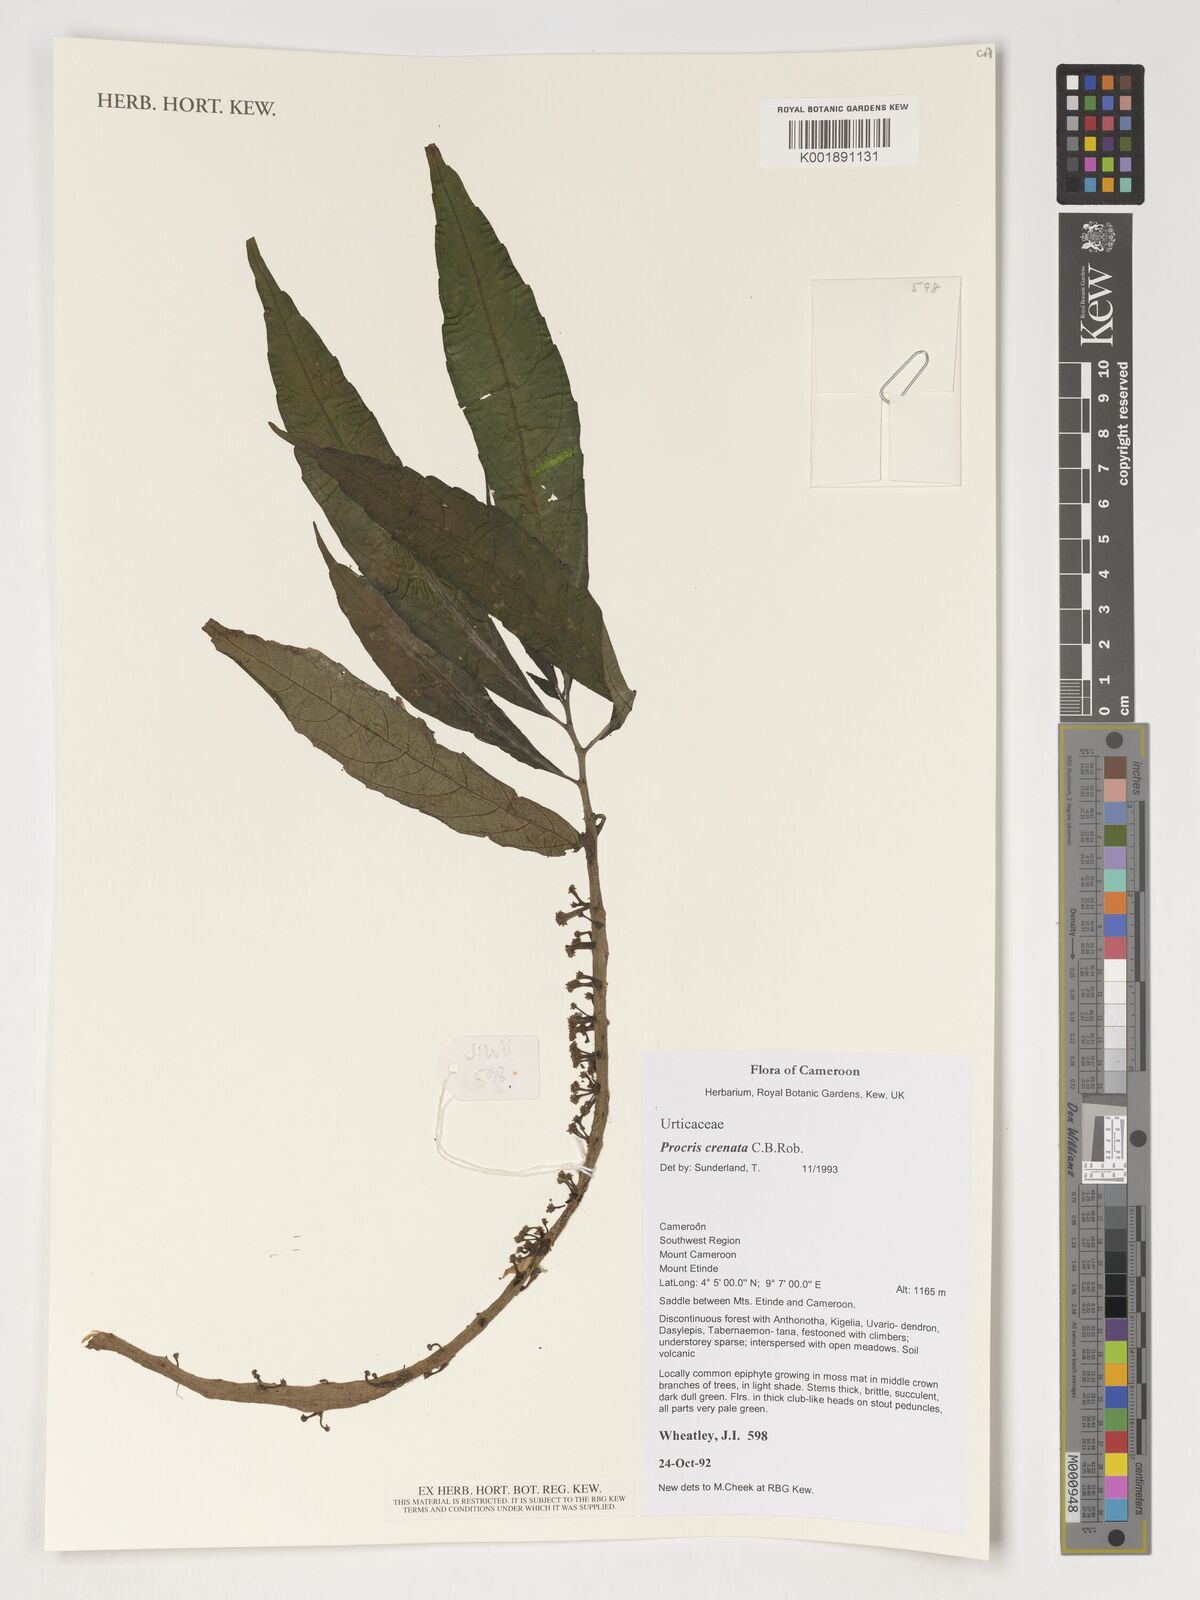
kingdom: Plantae
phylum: Tracheophyta
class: Magnoliopsida
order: Rosales
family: Urticaceae
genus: Procris
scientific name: Procris crenata
